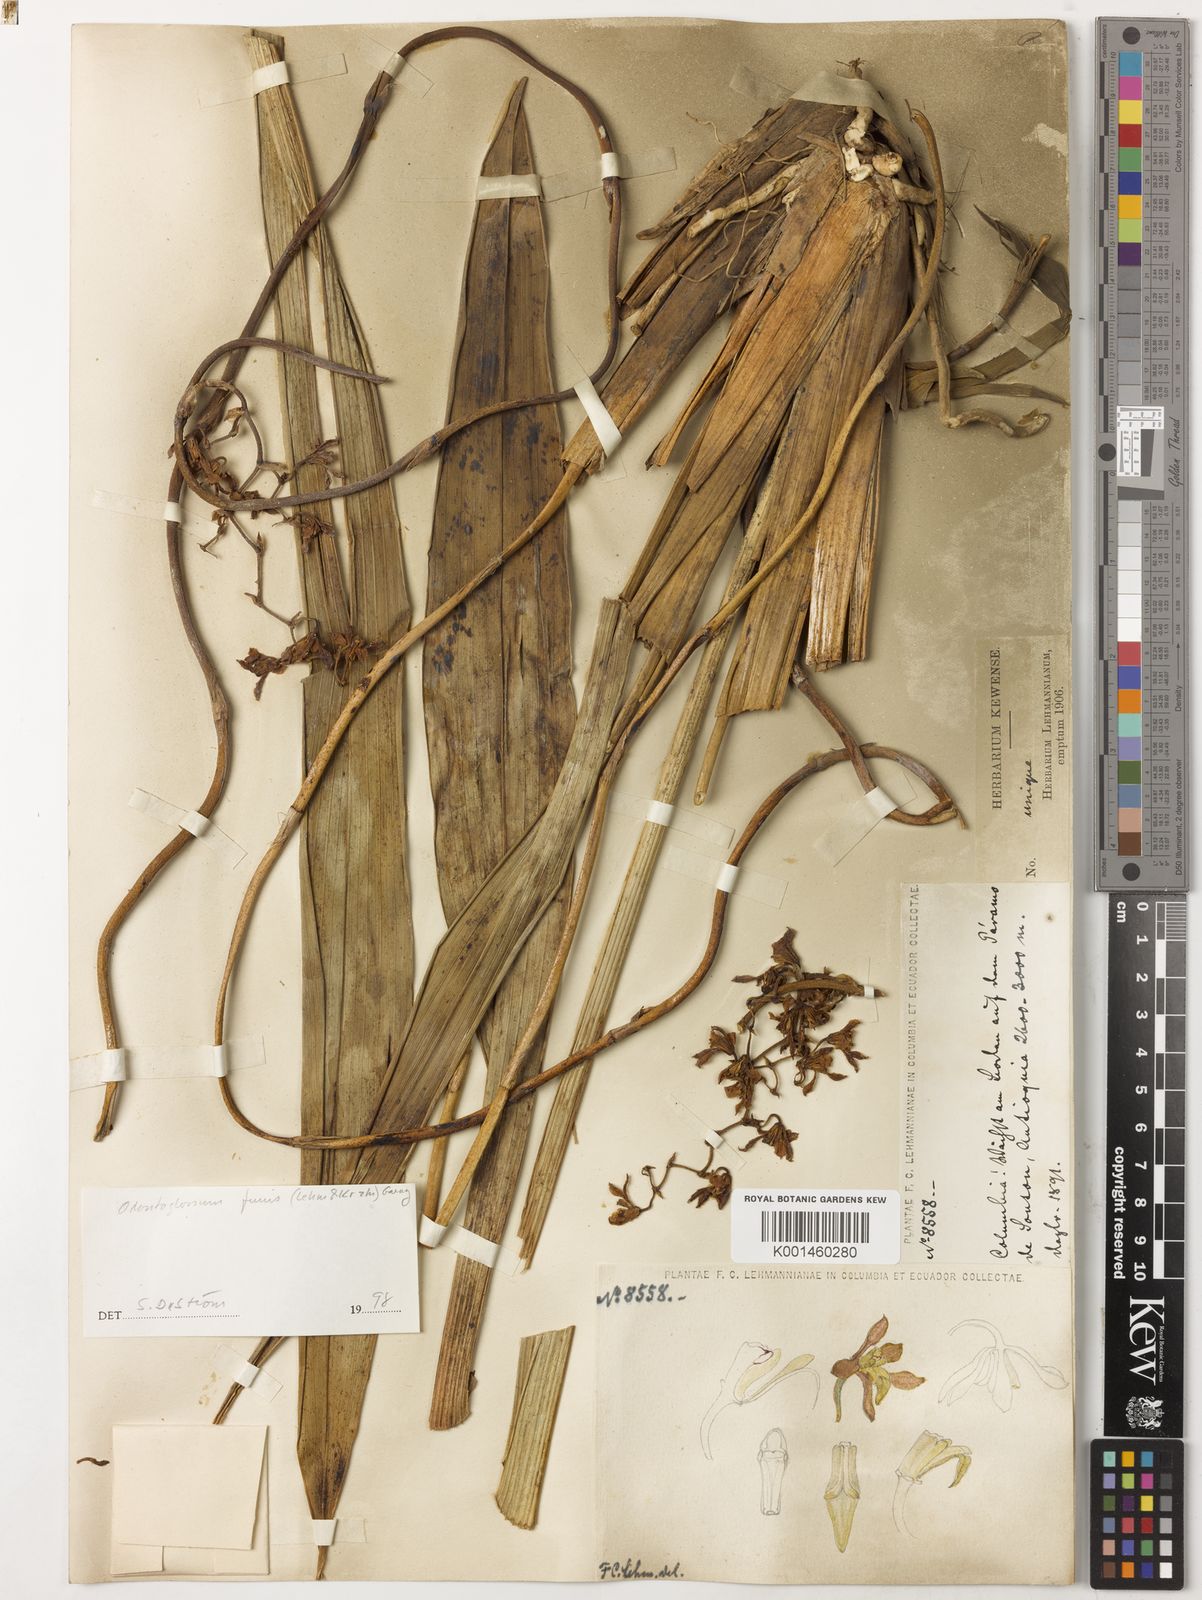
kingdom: Plantae
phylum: Tracheophyta
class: Liliopsida
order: Asparagales
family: Orchidaceae
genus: Cyrtochilum
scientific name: Cyrtochilum funis
